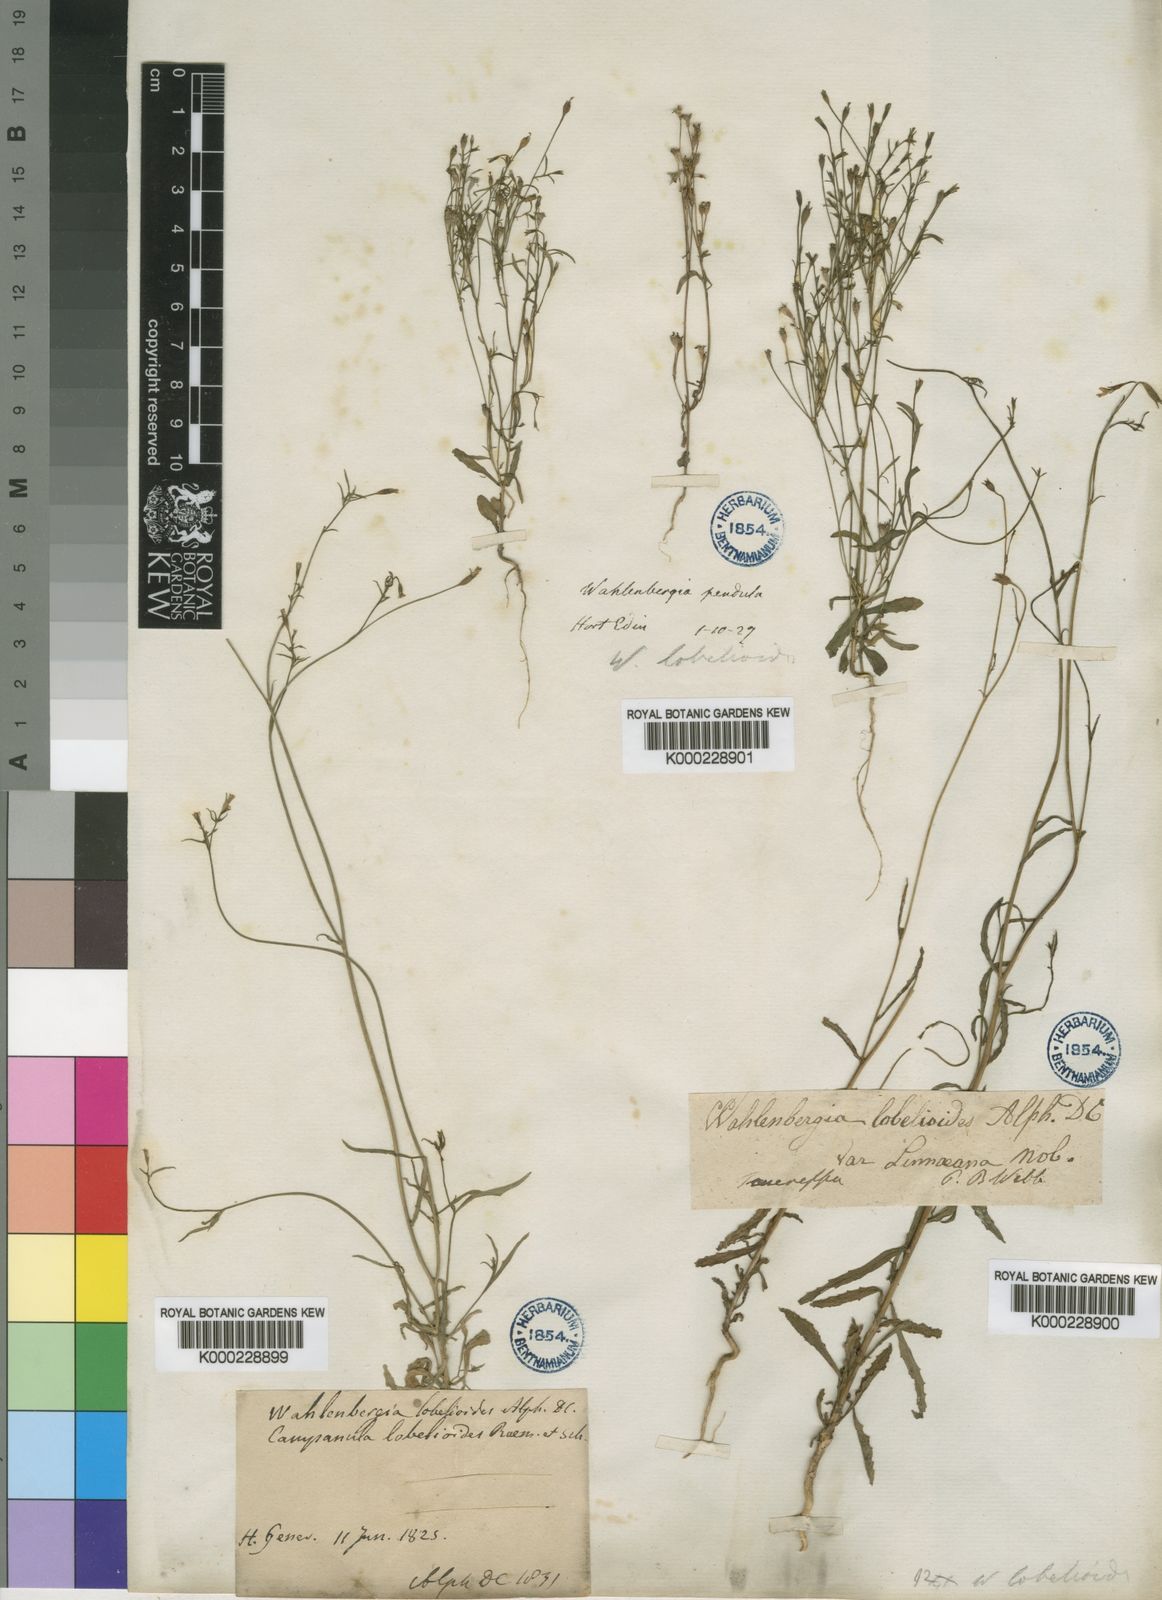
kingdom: Plantae
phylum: Tracheophyta
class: Magnoliopsida
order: Asterales
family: Campanulaceae
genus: Wahlenbergia
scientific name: Wahlenbergia lobelioides
